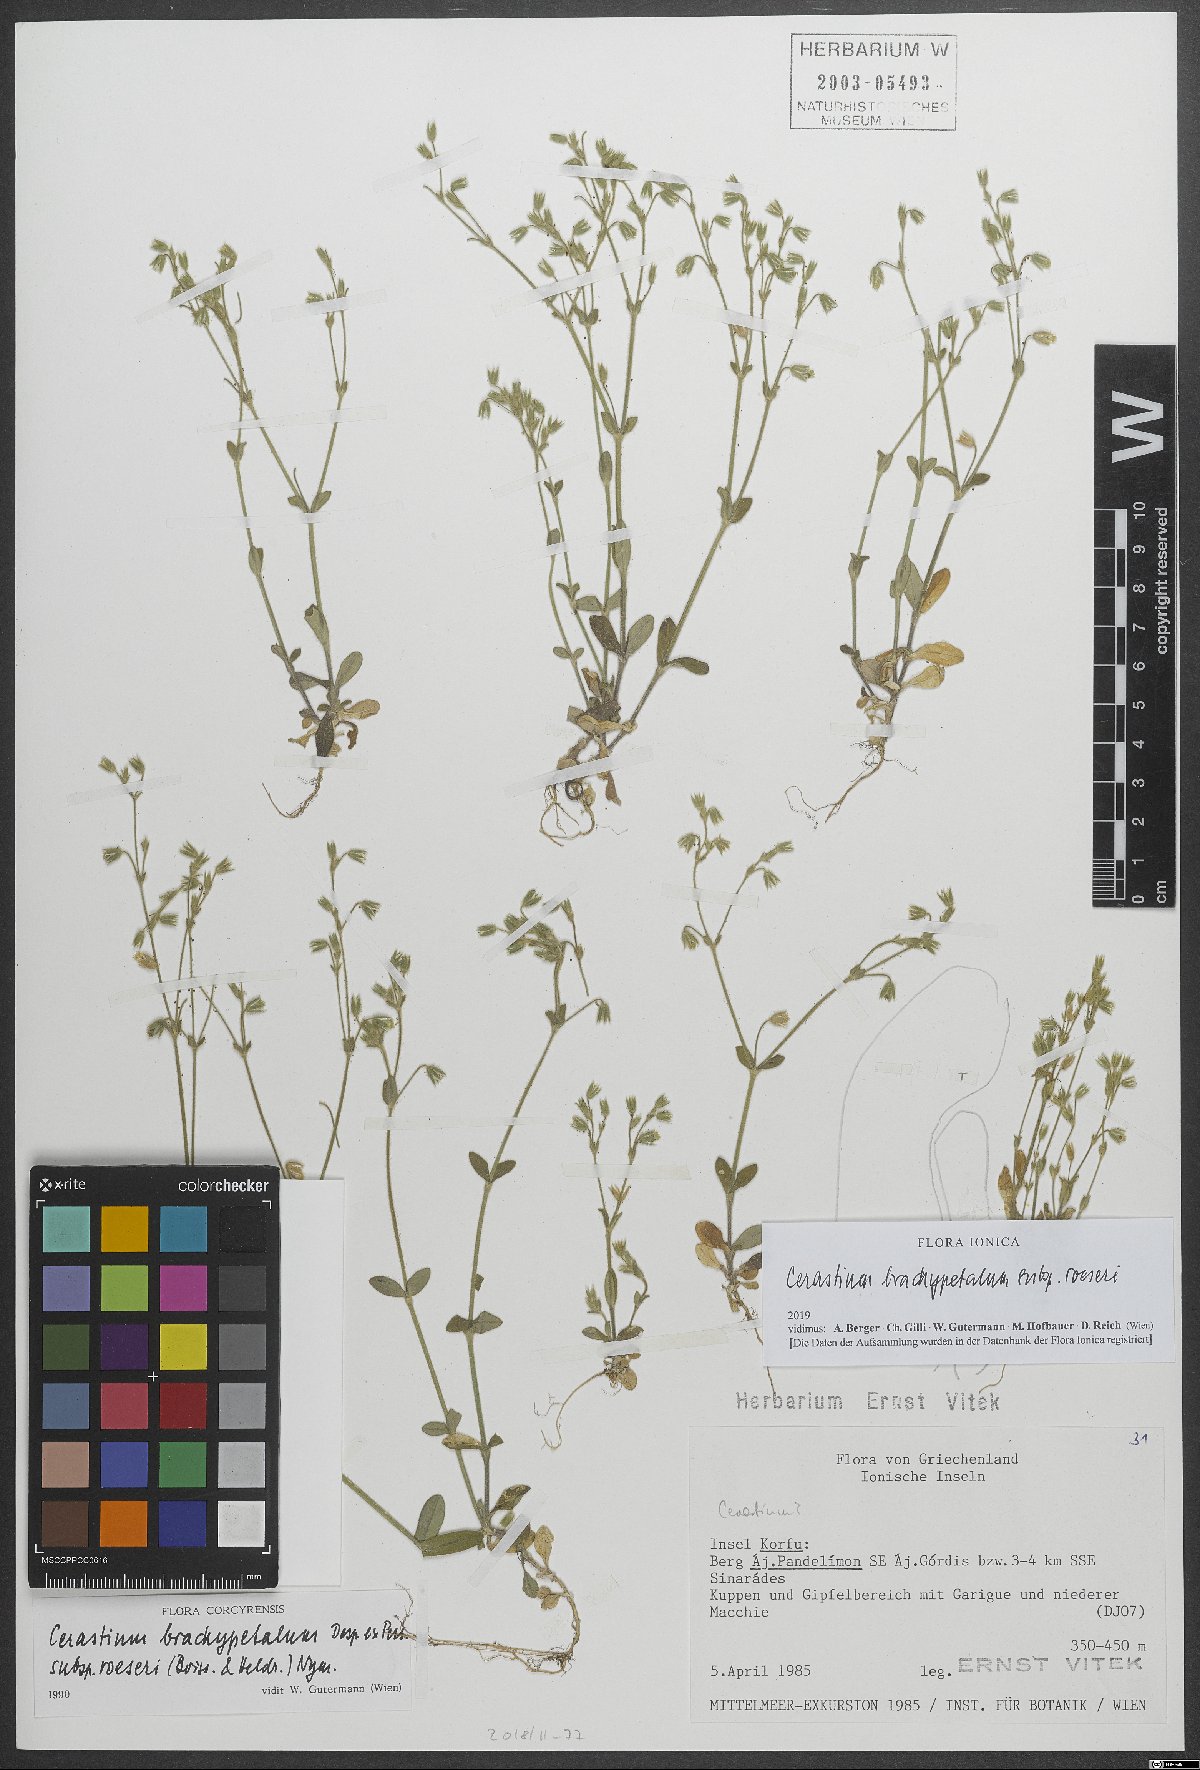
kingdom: Plantae
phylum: Tracheophyta
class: Magnoliopsida
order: Caryophyllales
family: Caryophyllaceae
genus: Cerastium
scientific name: Cerastium brachypetalum
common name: Grey mouse-ear
